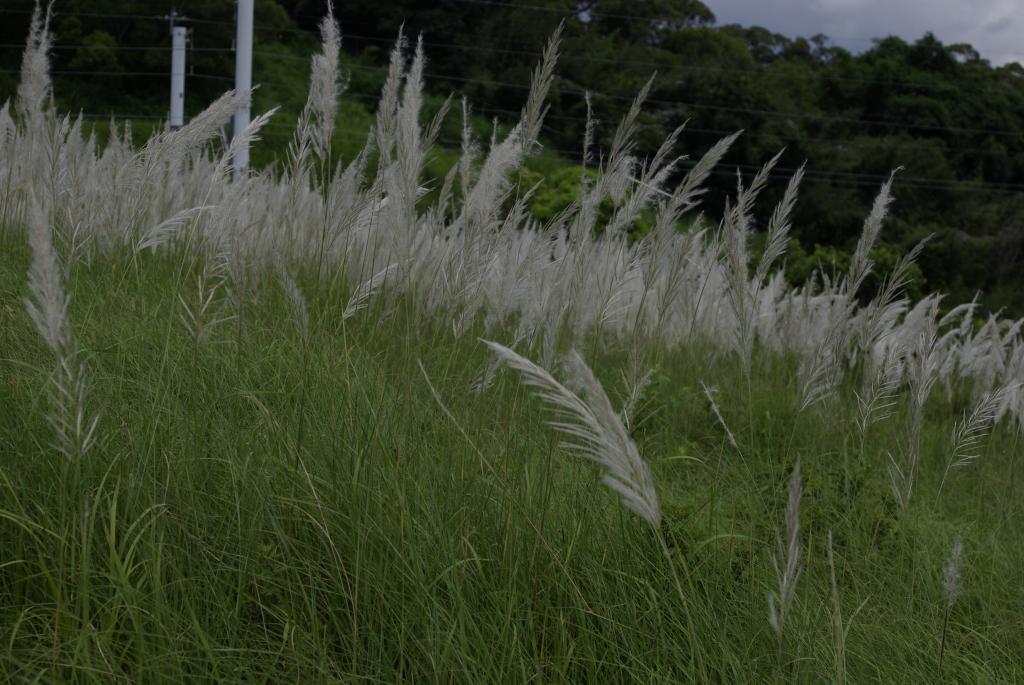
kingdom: Plantae
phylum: Tracheophyta
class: Liliopsida
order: Poales
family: Poaceae
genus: Saccharum
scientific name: Saccharum spontaneum
